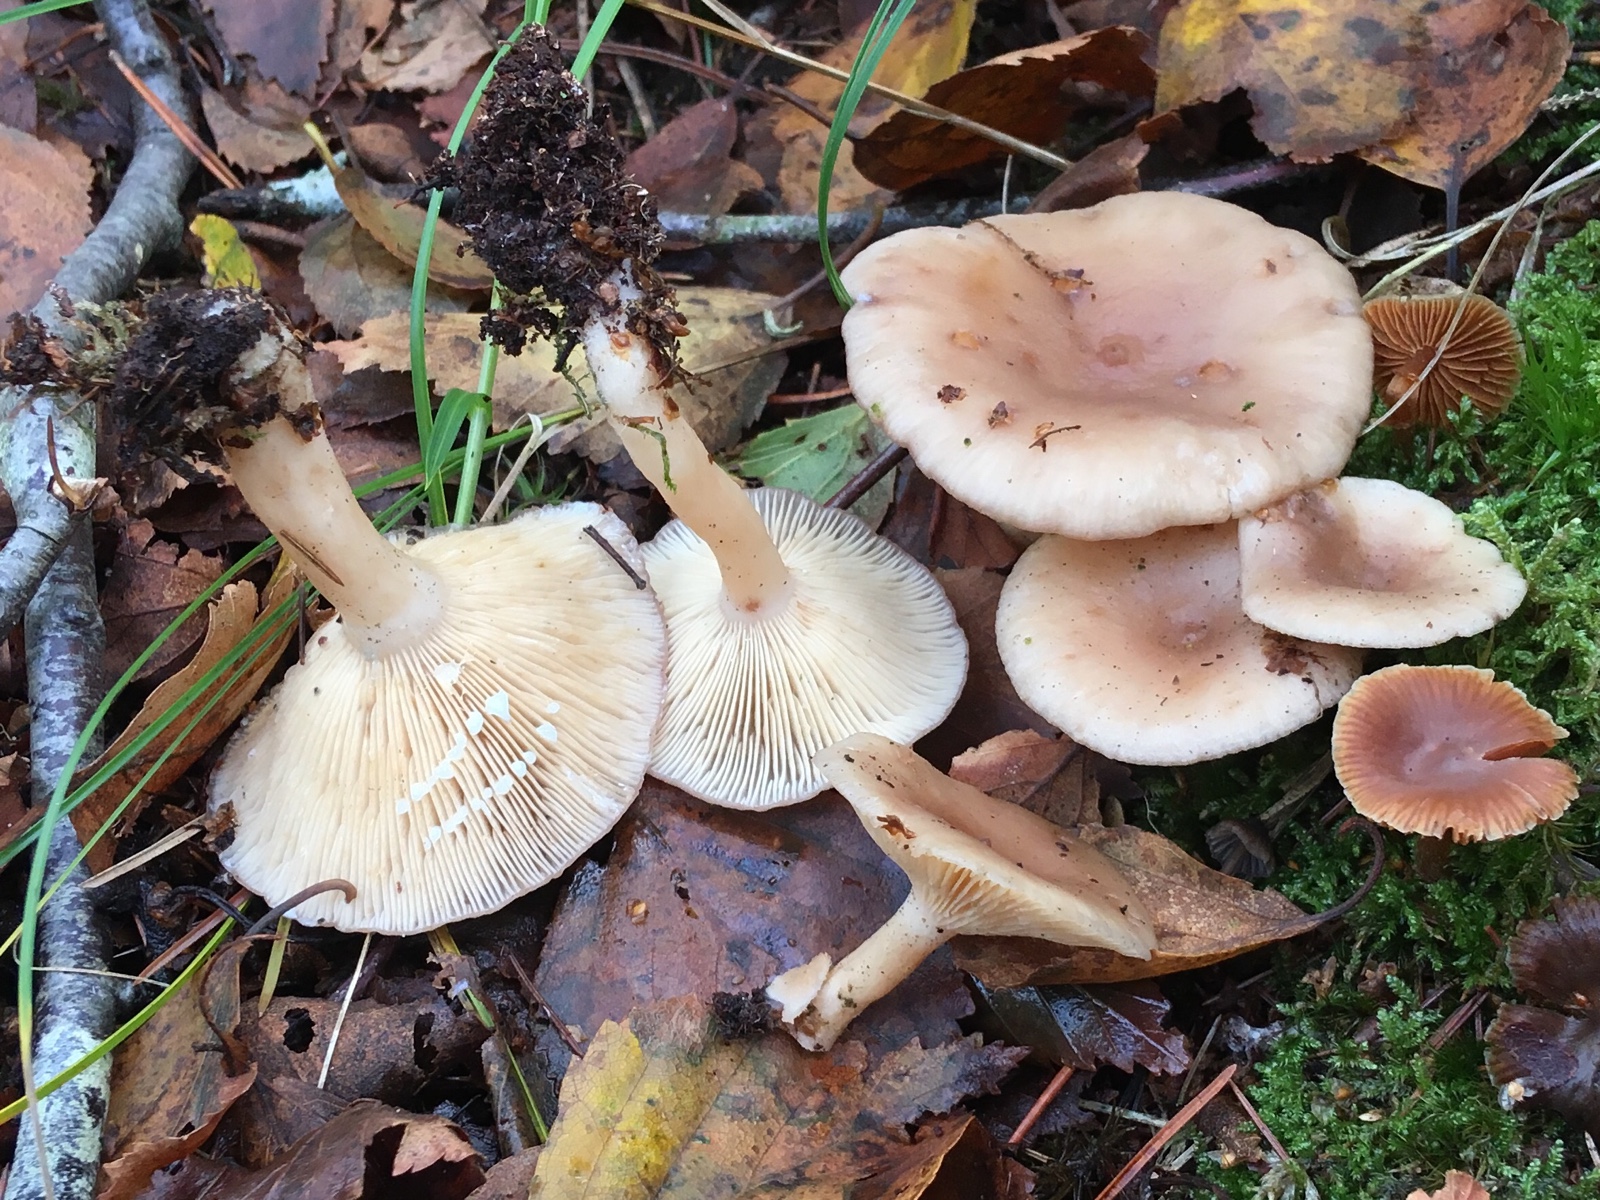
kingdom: Fungi
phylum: Basidiomycota
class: Agaricomycetes
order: Russulales
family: Russulaceae
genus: Lactarius
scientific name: Lactarius vietus
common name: violetgrå mælkehat
